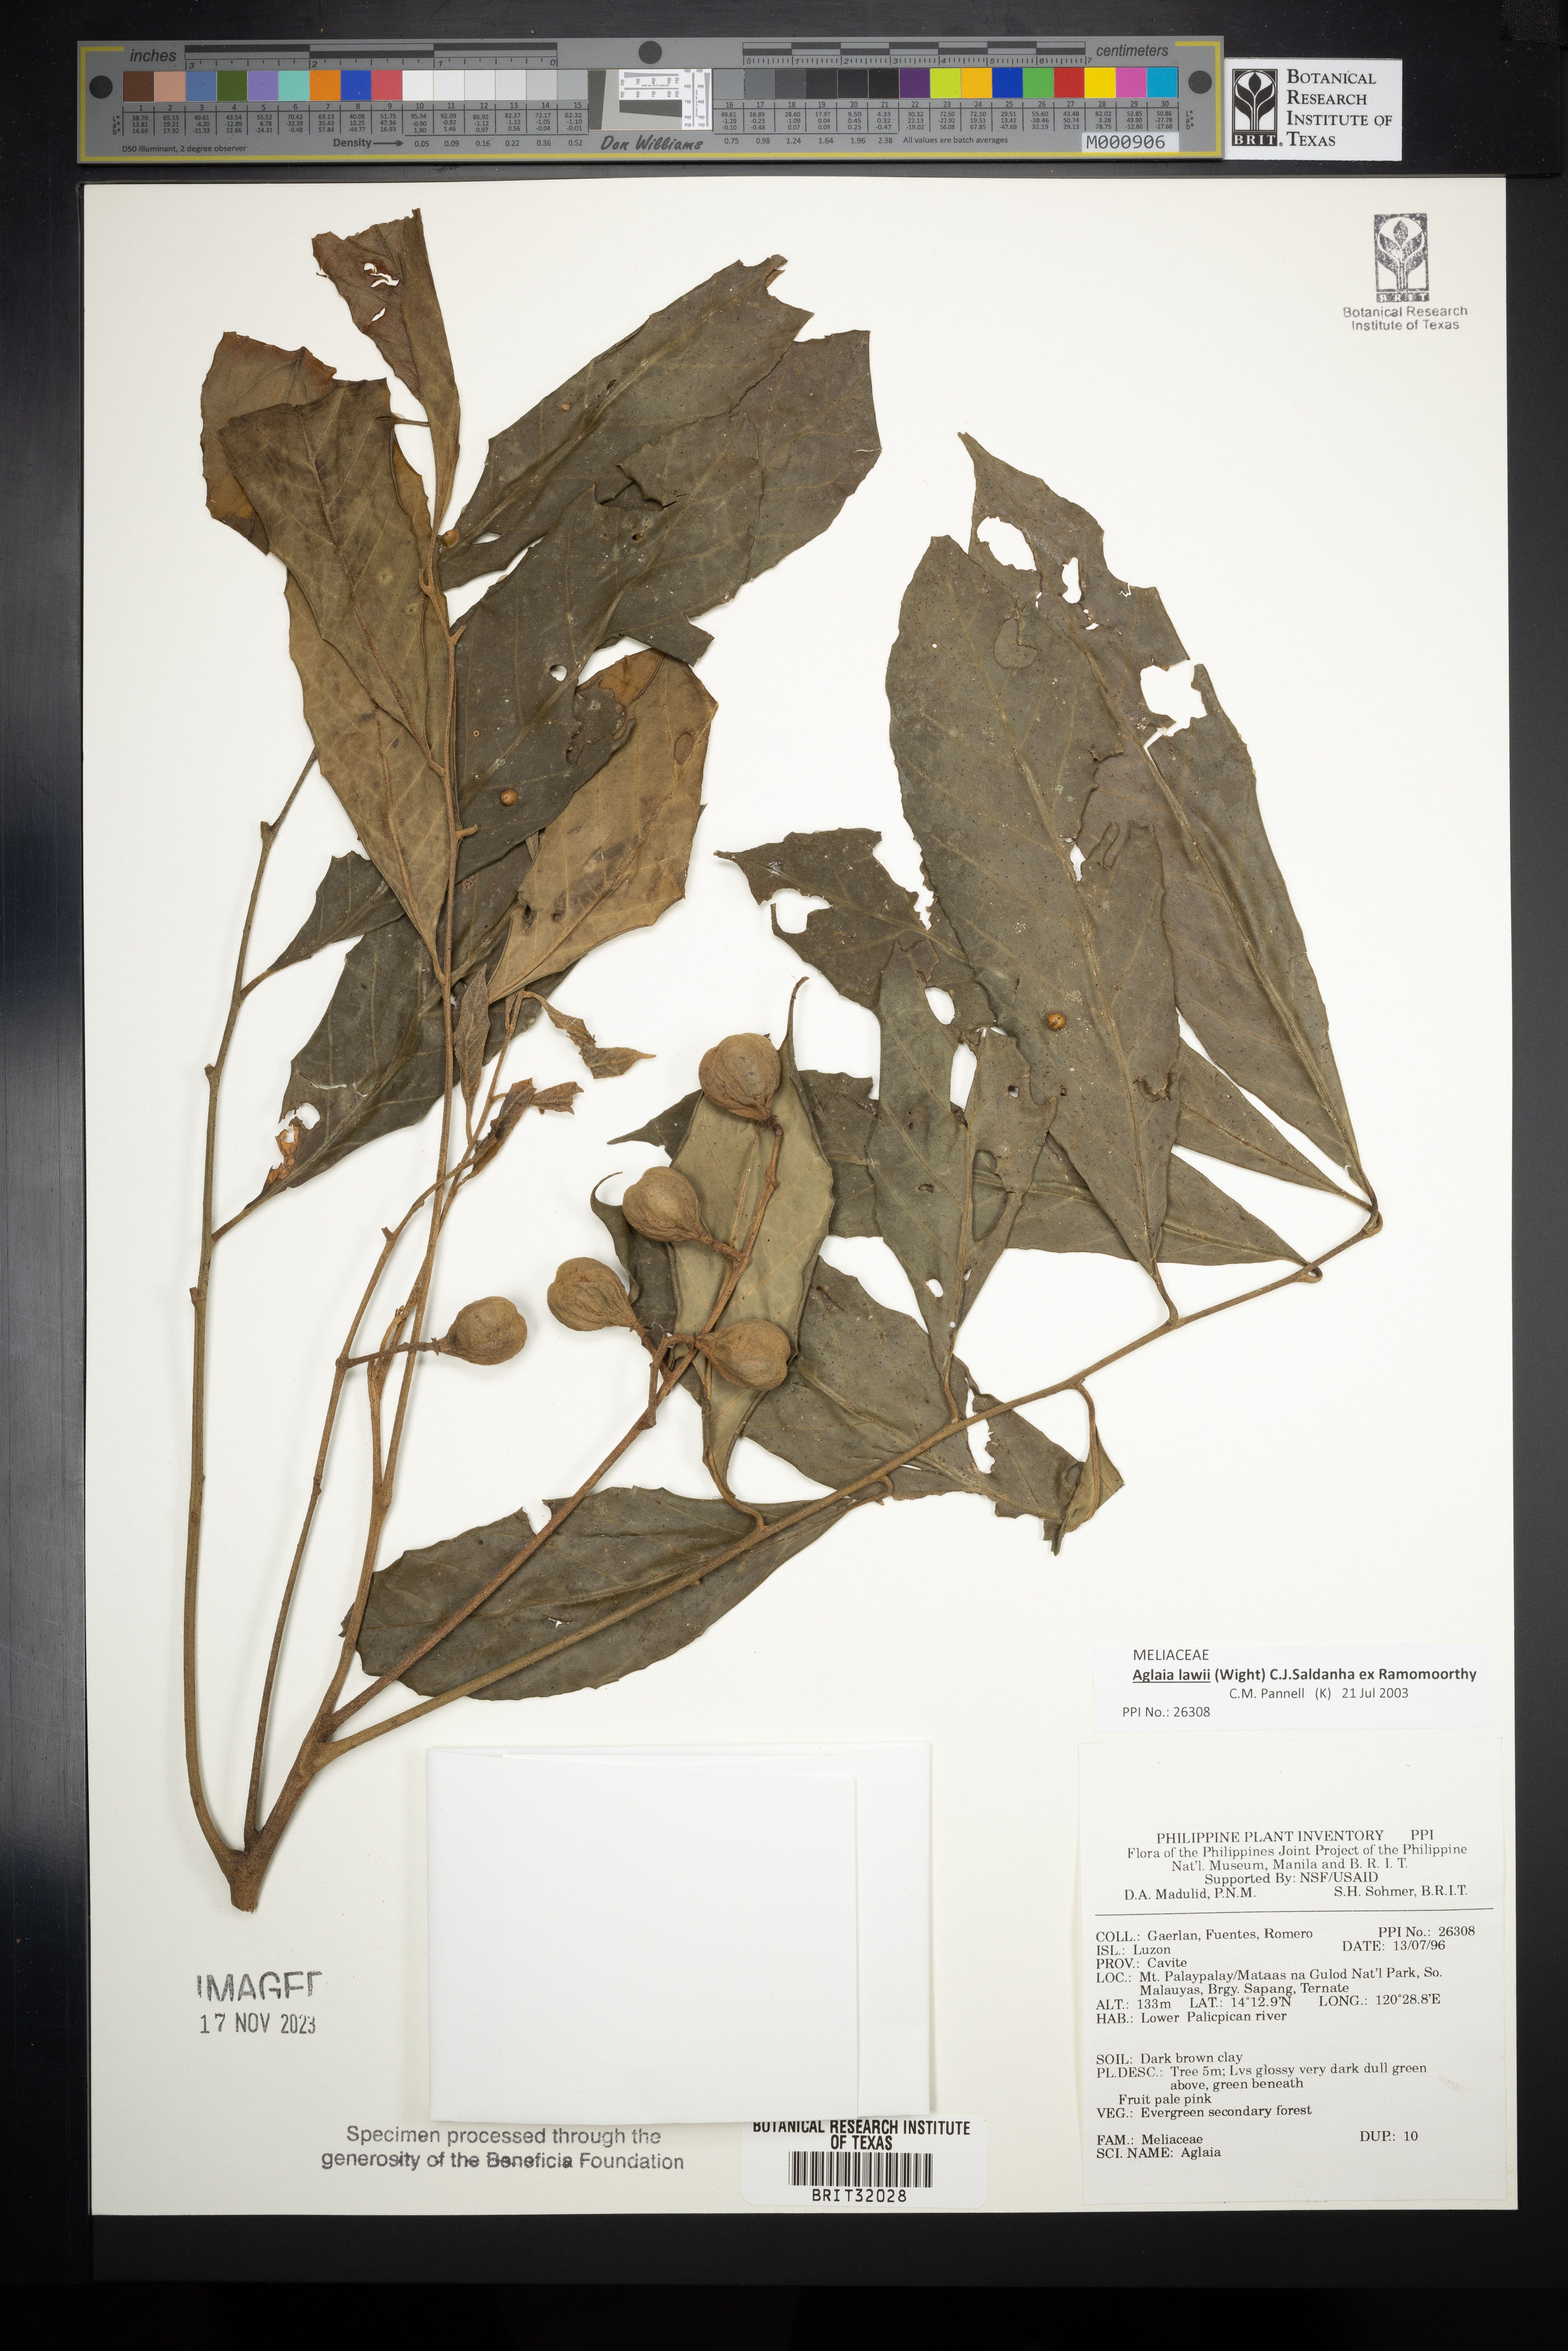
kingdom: Plantae
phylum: Tracheophyta
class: Magnoliopsida
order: Sapindales
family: Meliaceae
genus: Aglaia
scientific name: Aglaia
